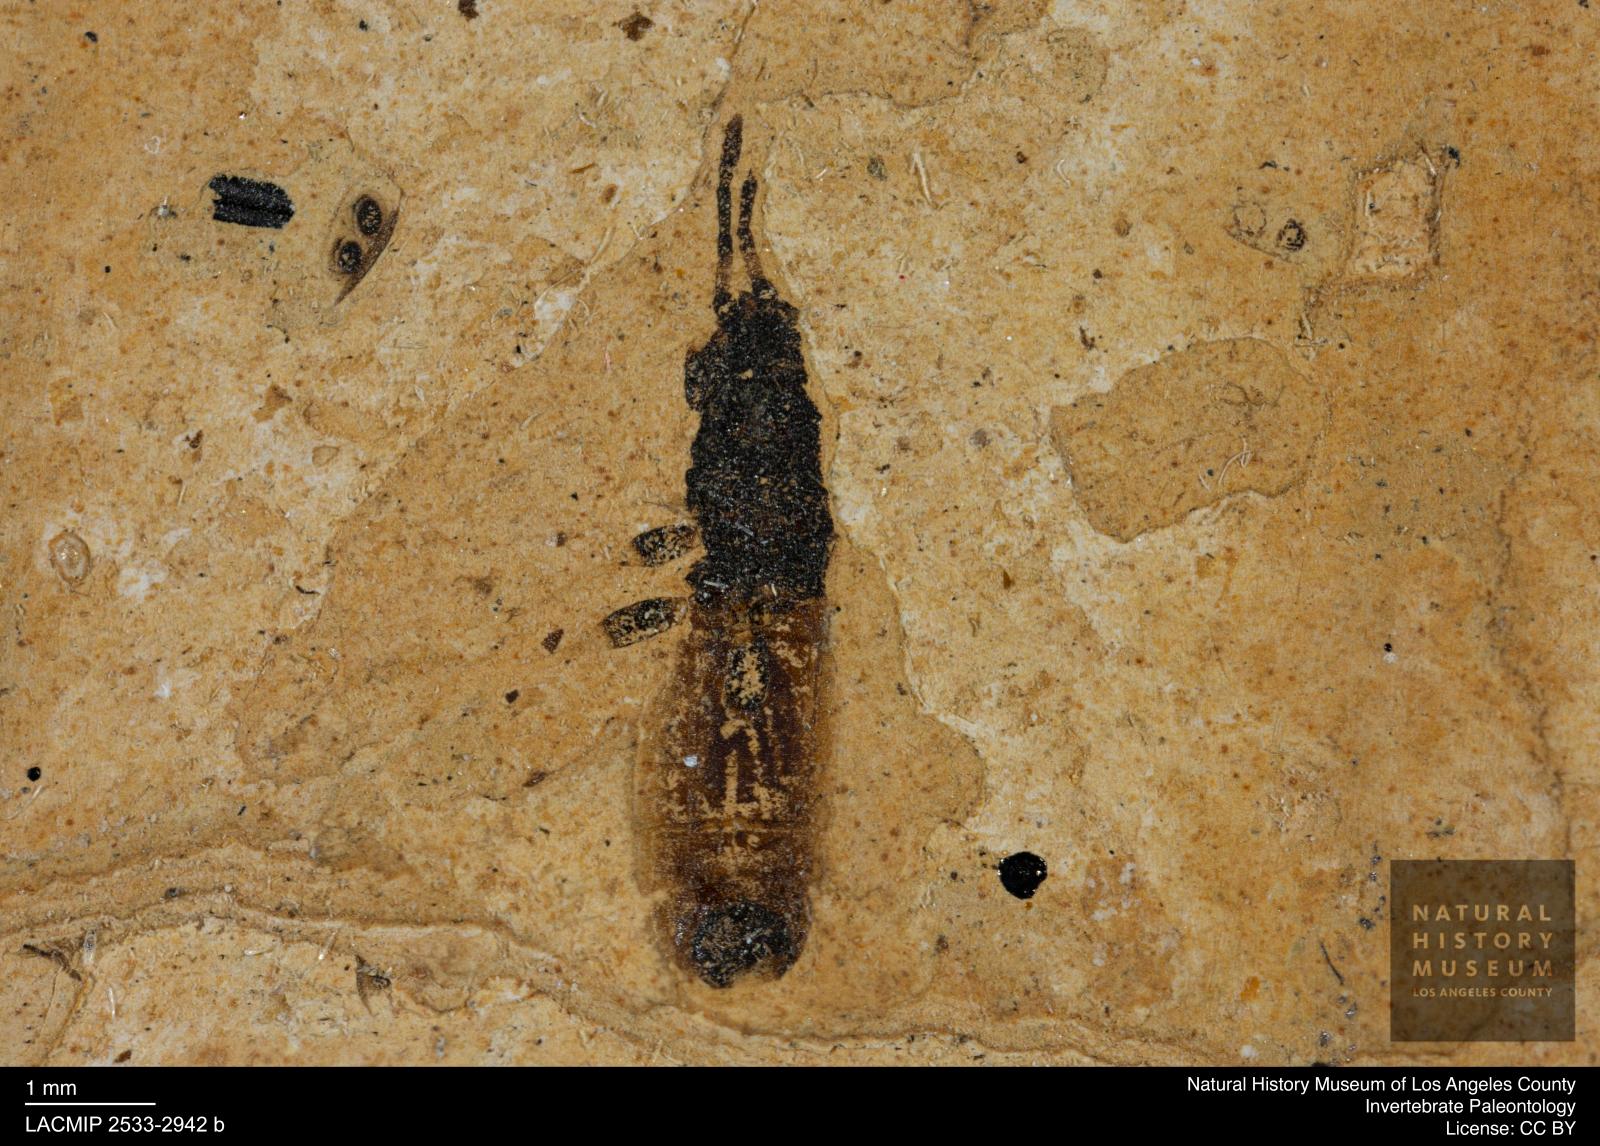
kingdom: Animalia
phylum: Arthropoda
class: Insecta
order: Hemiptera
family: Blissidae
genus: Ischnodemus
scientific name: Ischnodemus rottensis
